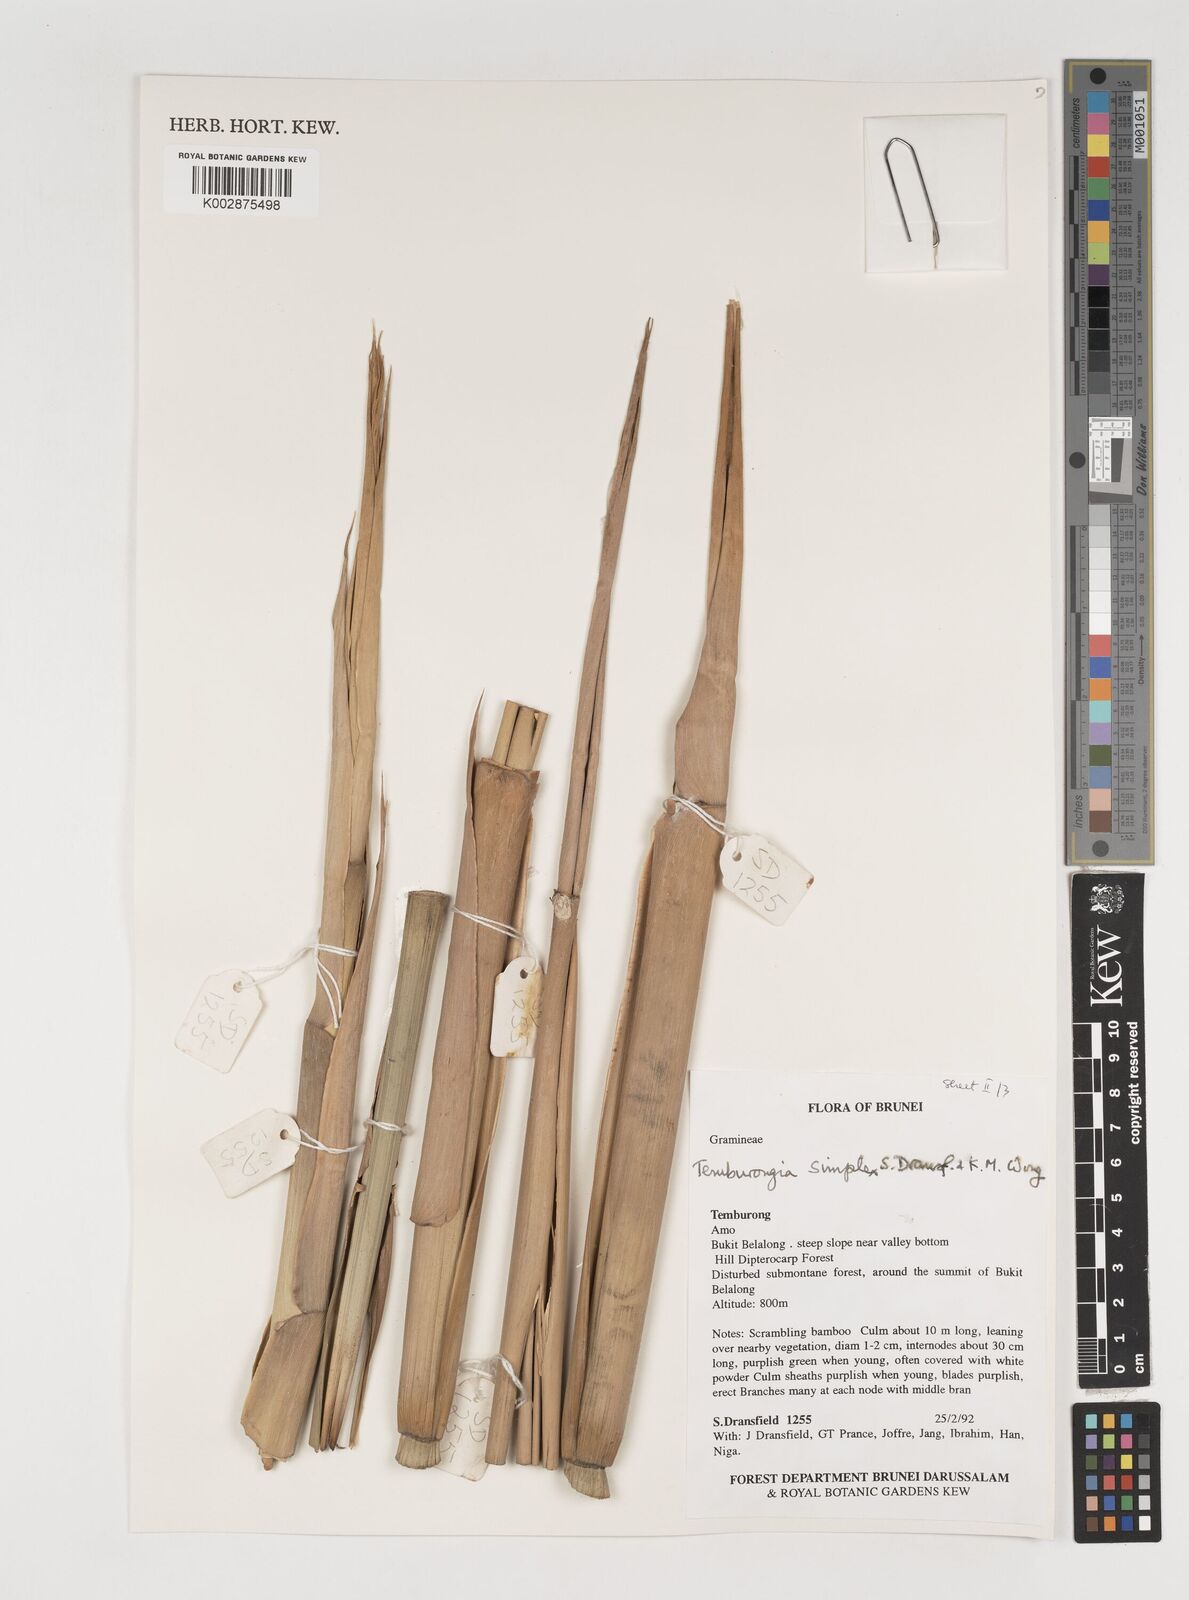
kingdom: Plantae
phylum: Tracheophyta
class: Liliopsida
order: Poales
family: Poaceae
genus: Temburongia
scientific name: Temburongia simplex
